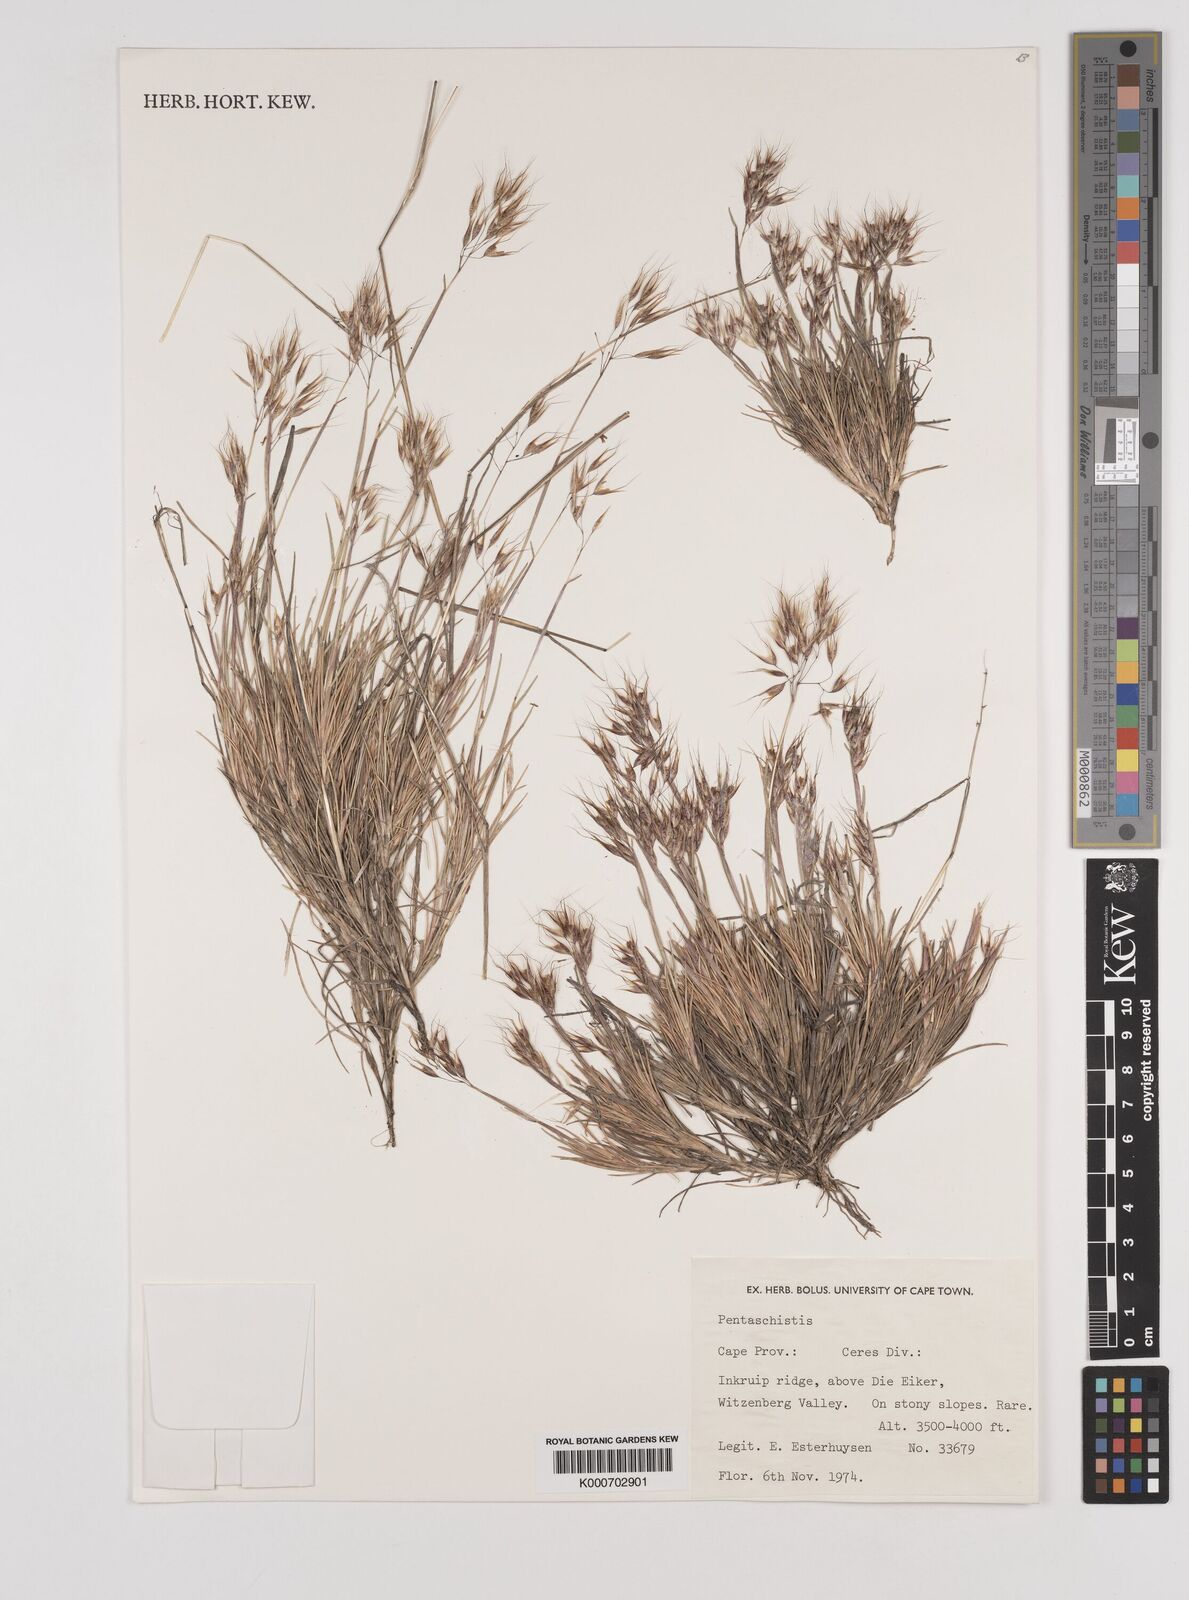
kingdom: Plantae
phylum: Tracheophyta
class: Liliopsida
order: Poales
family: Poaceae
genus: Pentameris
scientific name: Pentameris barbata
